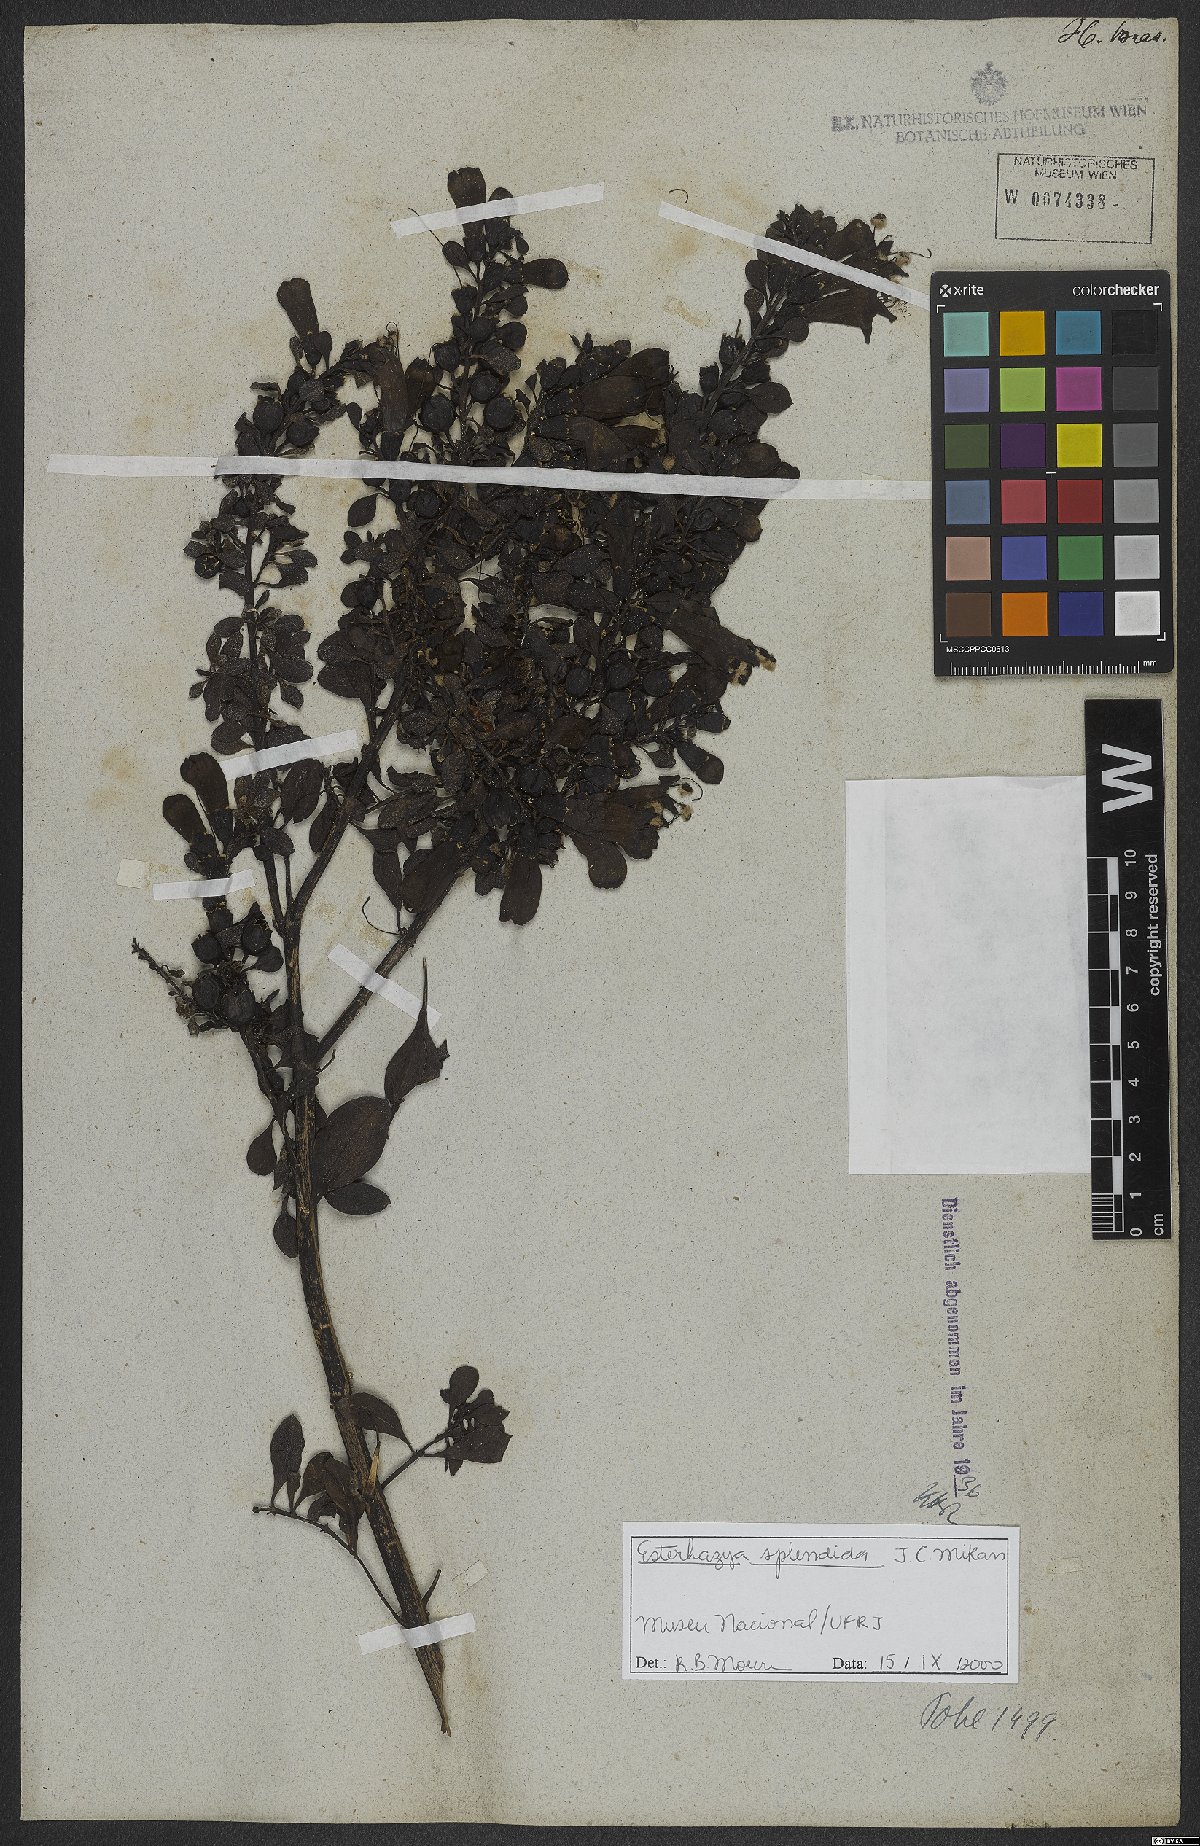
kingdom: Plantae
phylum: Tracheophyta
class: Magnoliopsida
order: Lamiales
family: Orobanchaceae
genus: Esterhazya
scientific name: Esterhazya splendida
